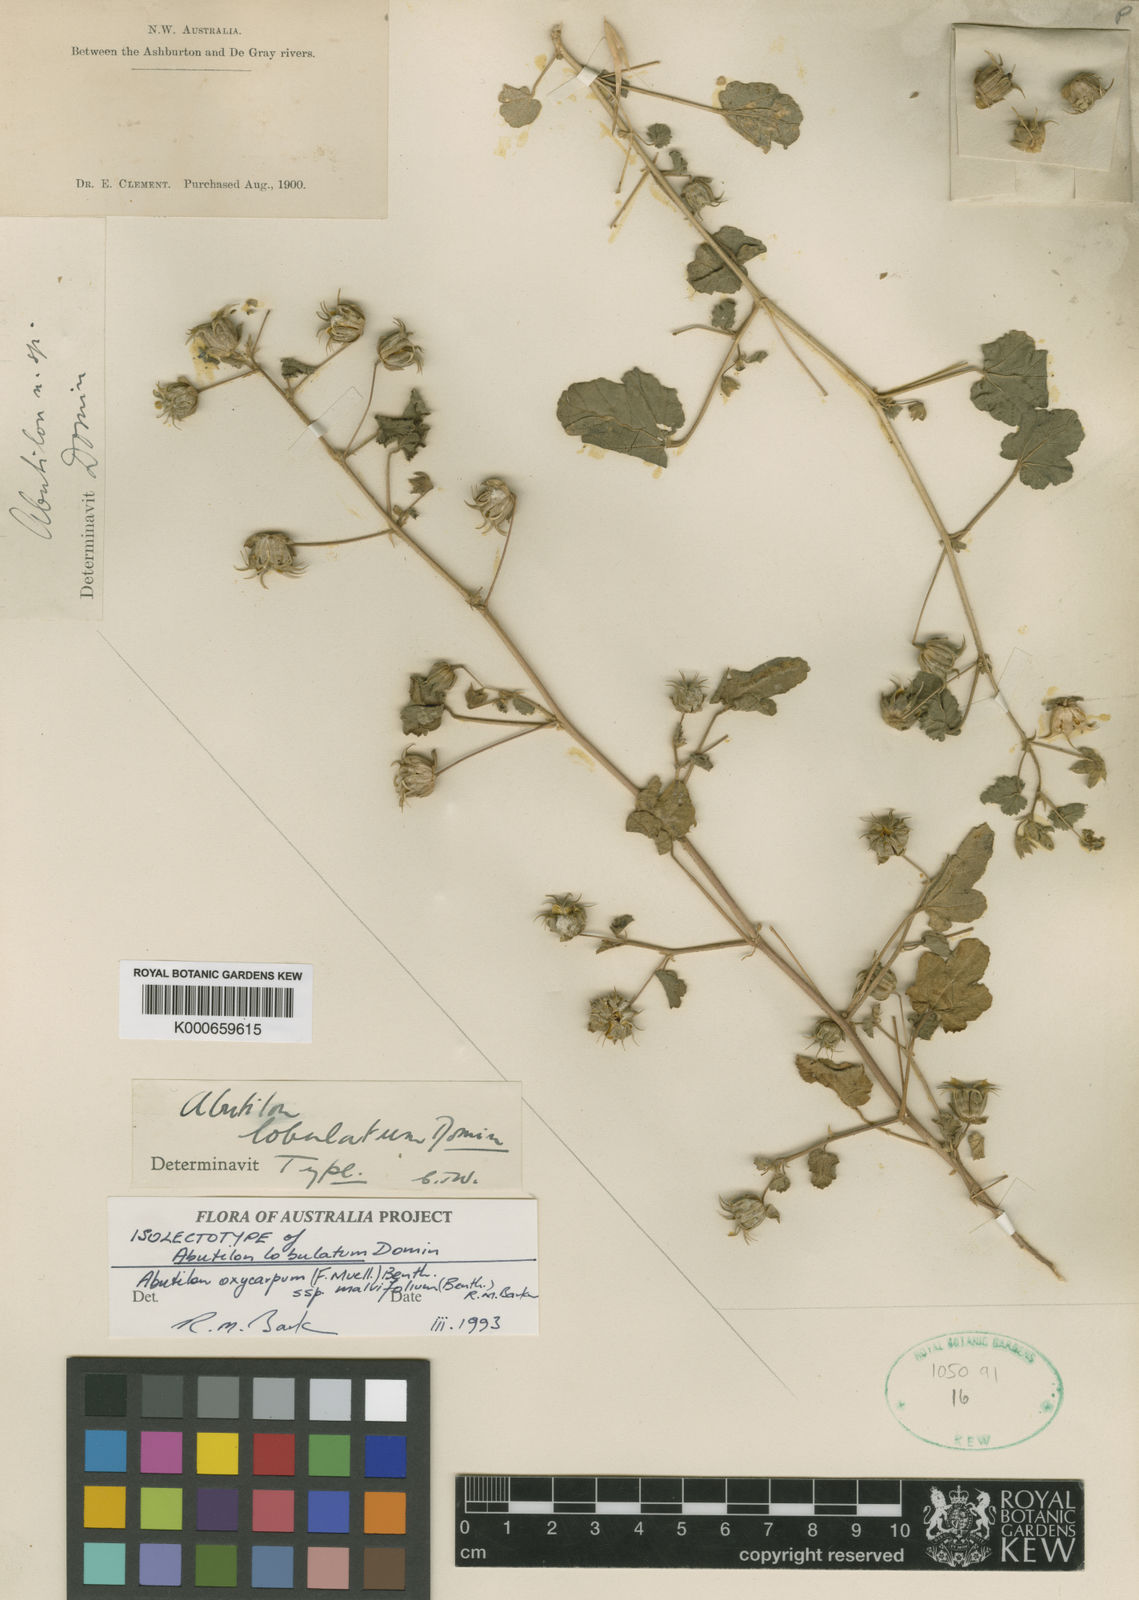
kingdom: Plantae
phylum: Tracheophyta
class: Magnoliopsida
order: Malvales
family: Malvaceae
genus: Abutilon
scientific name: Abutilon lobulatum
